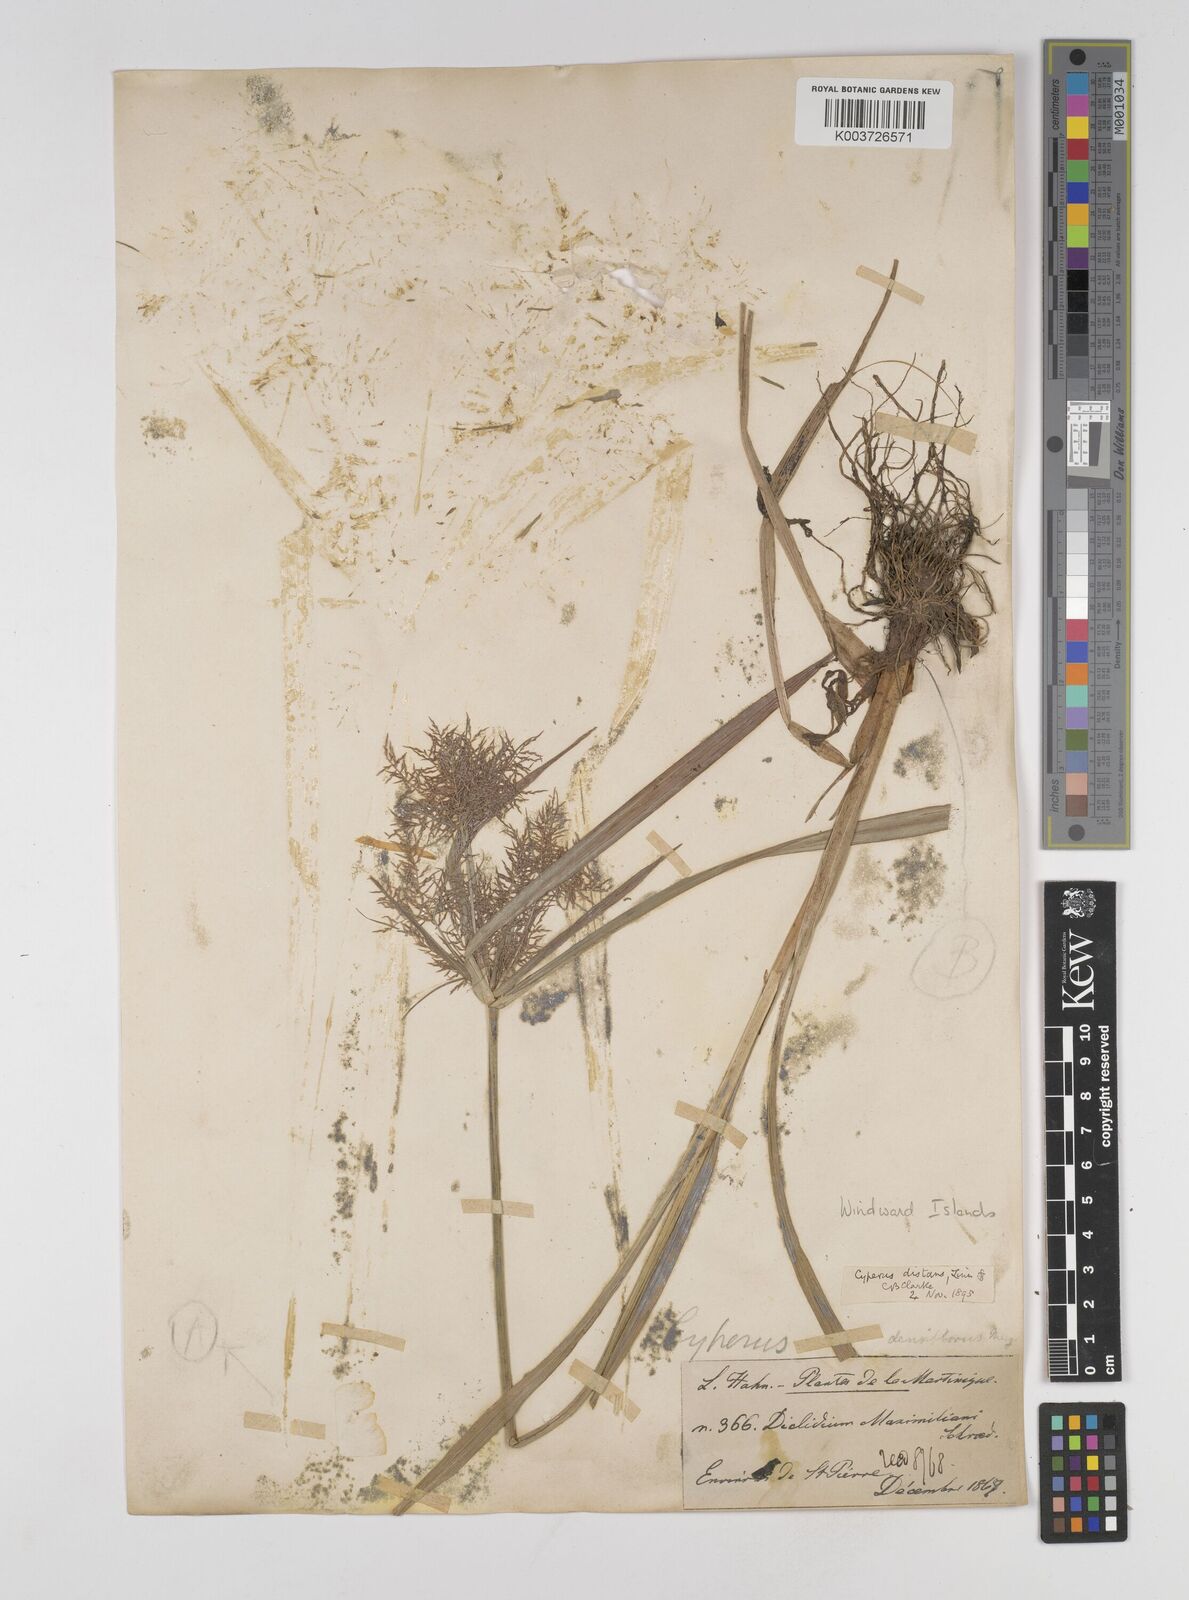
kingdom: Plantae
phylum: Tracheophyta
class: Liliopsida
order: Poales
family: Cyperaceae
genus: Cyperus
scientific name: Cyperus distans
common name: Slender cyperus
